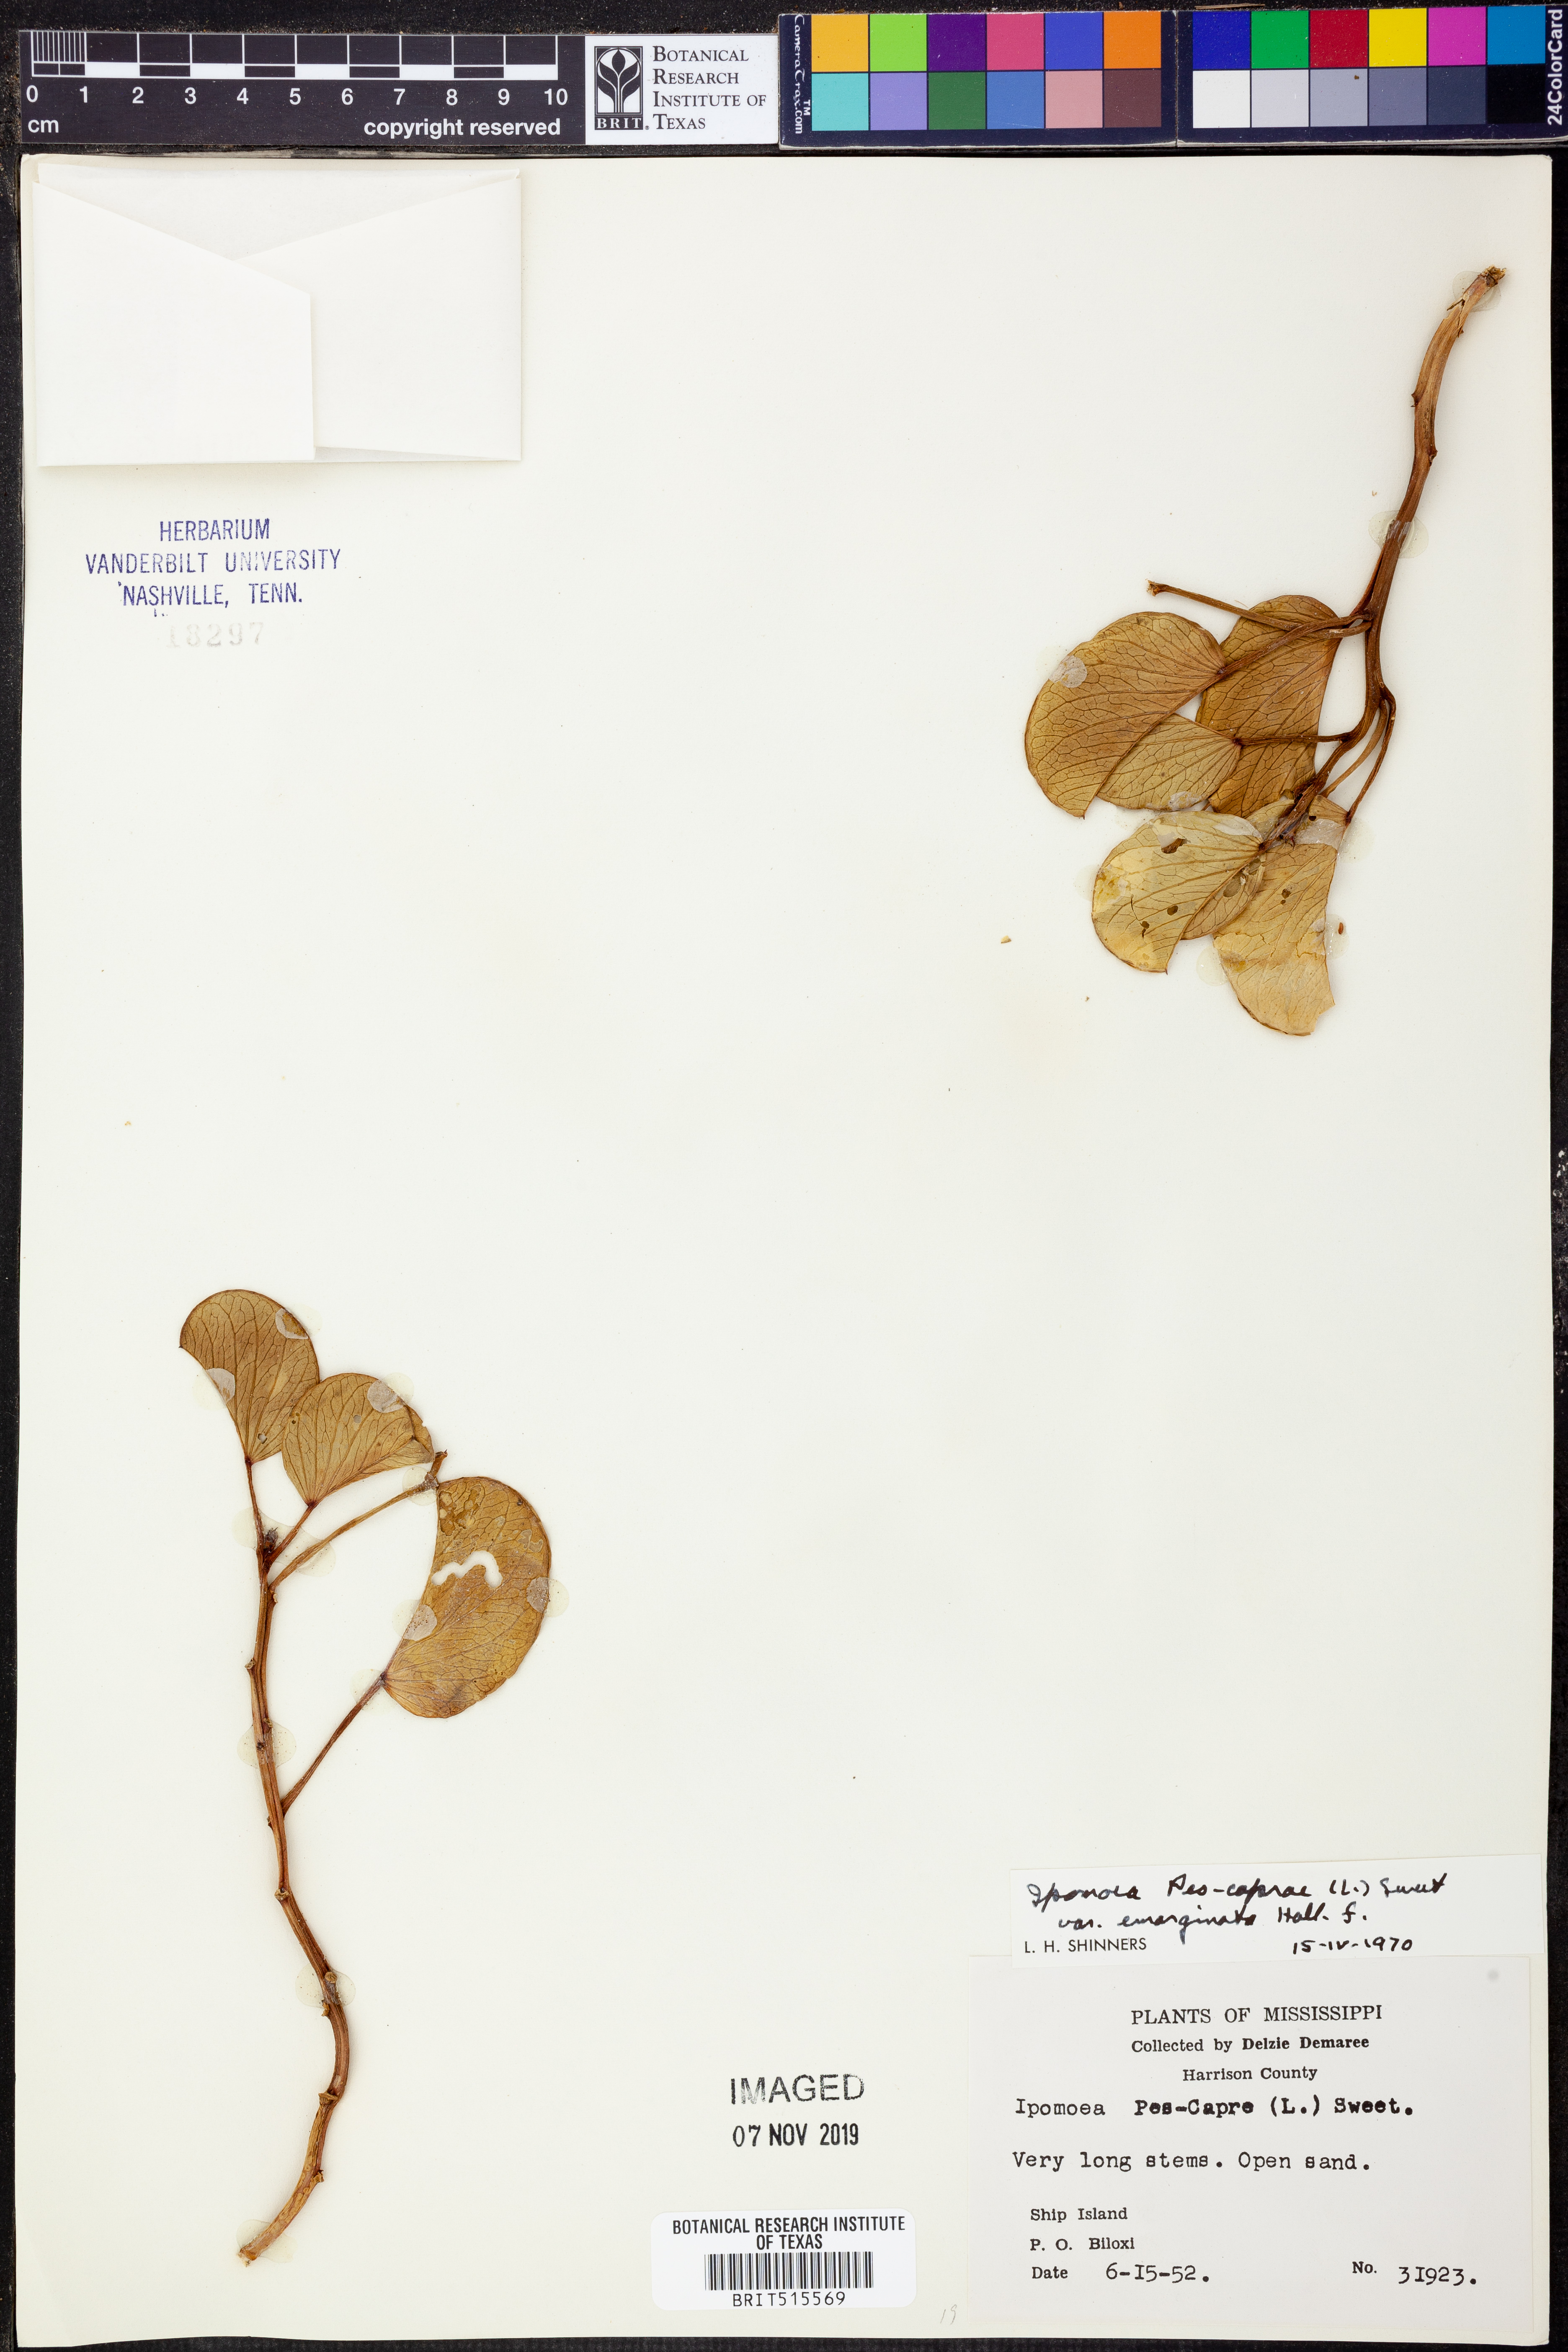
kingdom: Plantae
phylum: Tracheophyta
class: Magnoliopsida
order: Solanales
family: Convolvulaceae
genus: Ipomoea
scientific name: Ipomoea pes-caprae
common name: Beach morning glory
